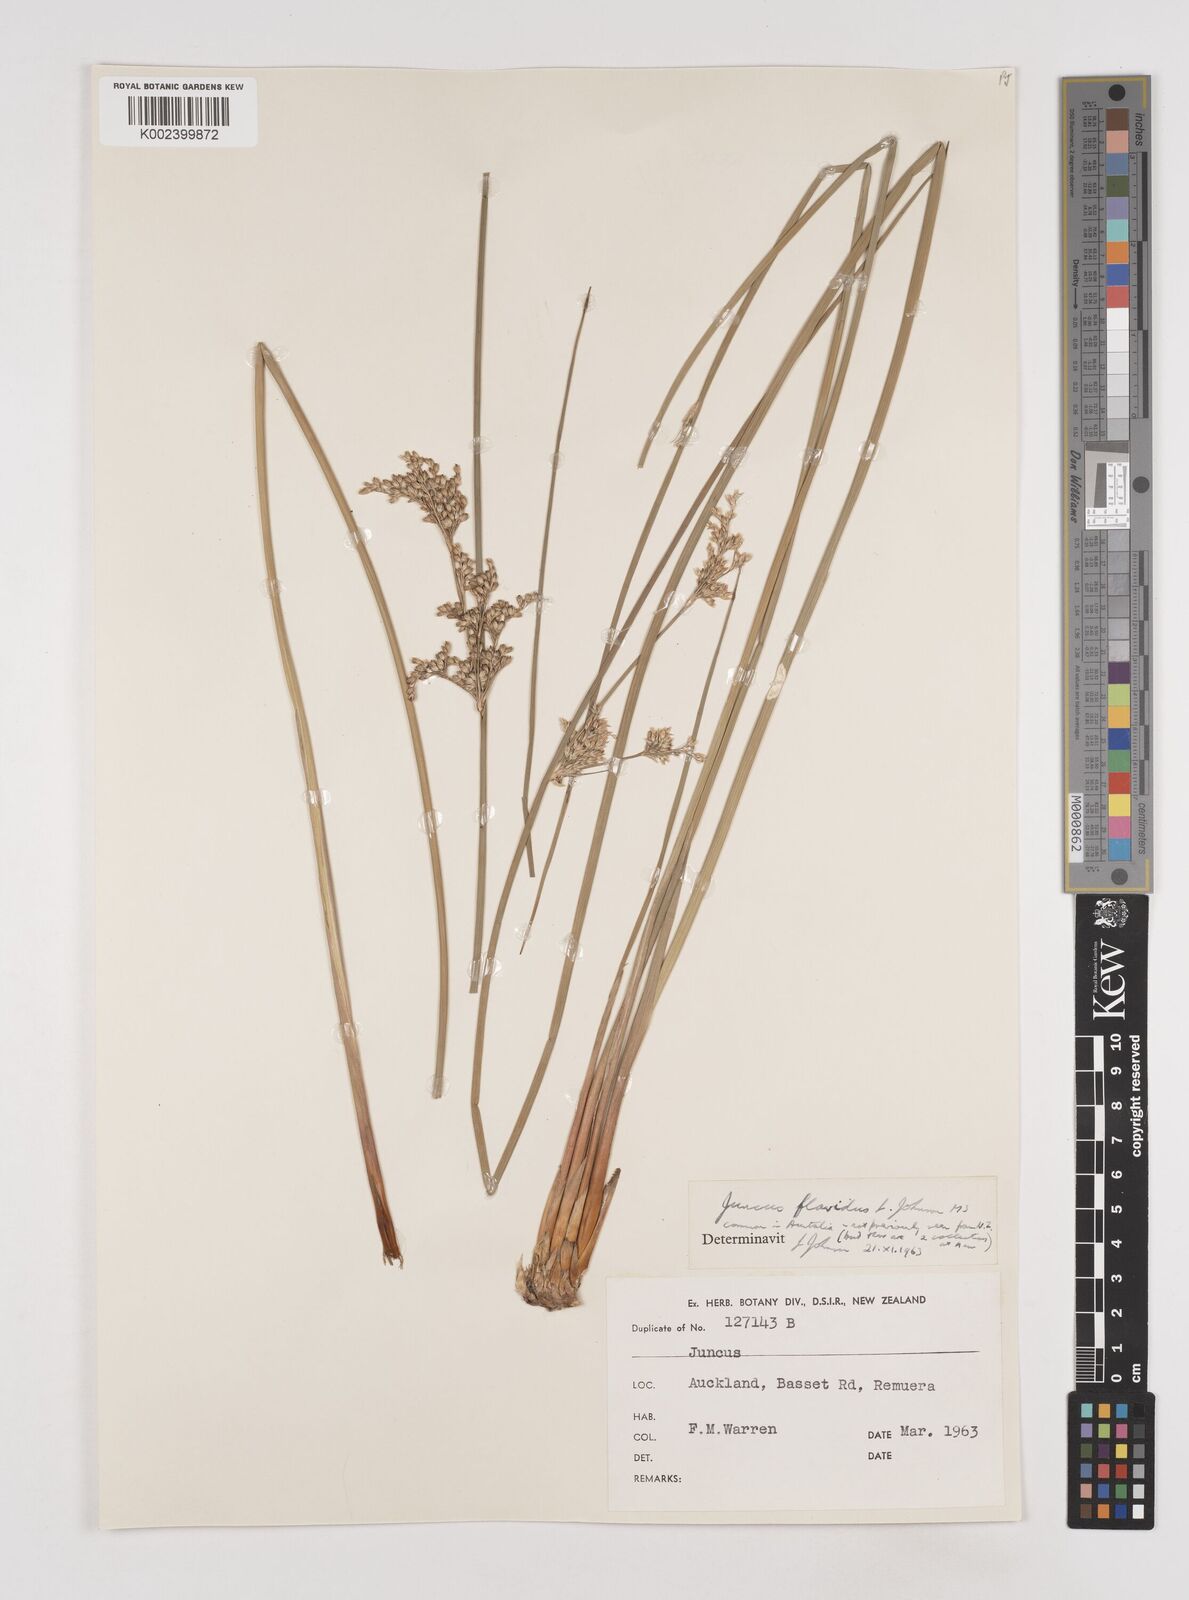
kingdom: Plantae
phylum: Tracheophyta
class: Liliopsida
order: Poales
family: Juncaceae
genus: Juncus
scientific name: Juncus flavidus
